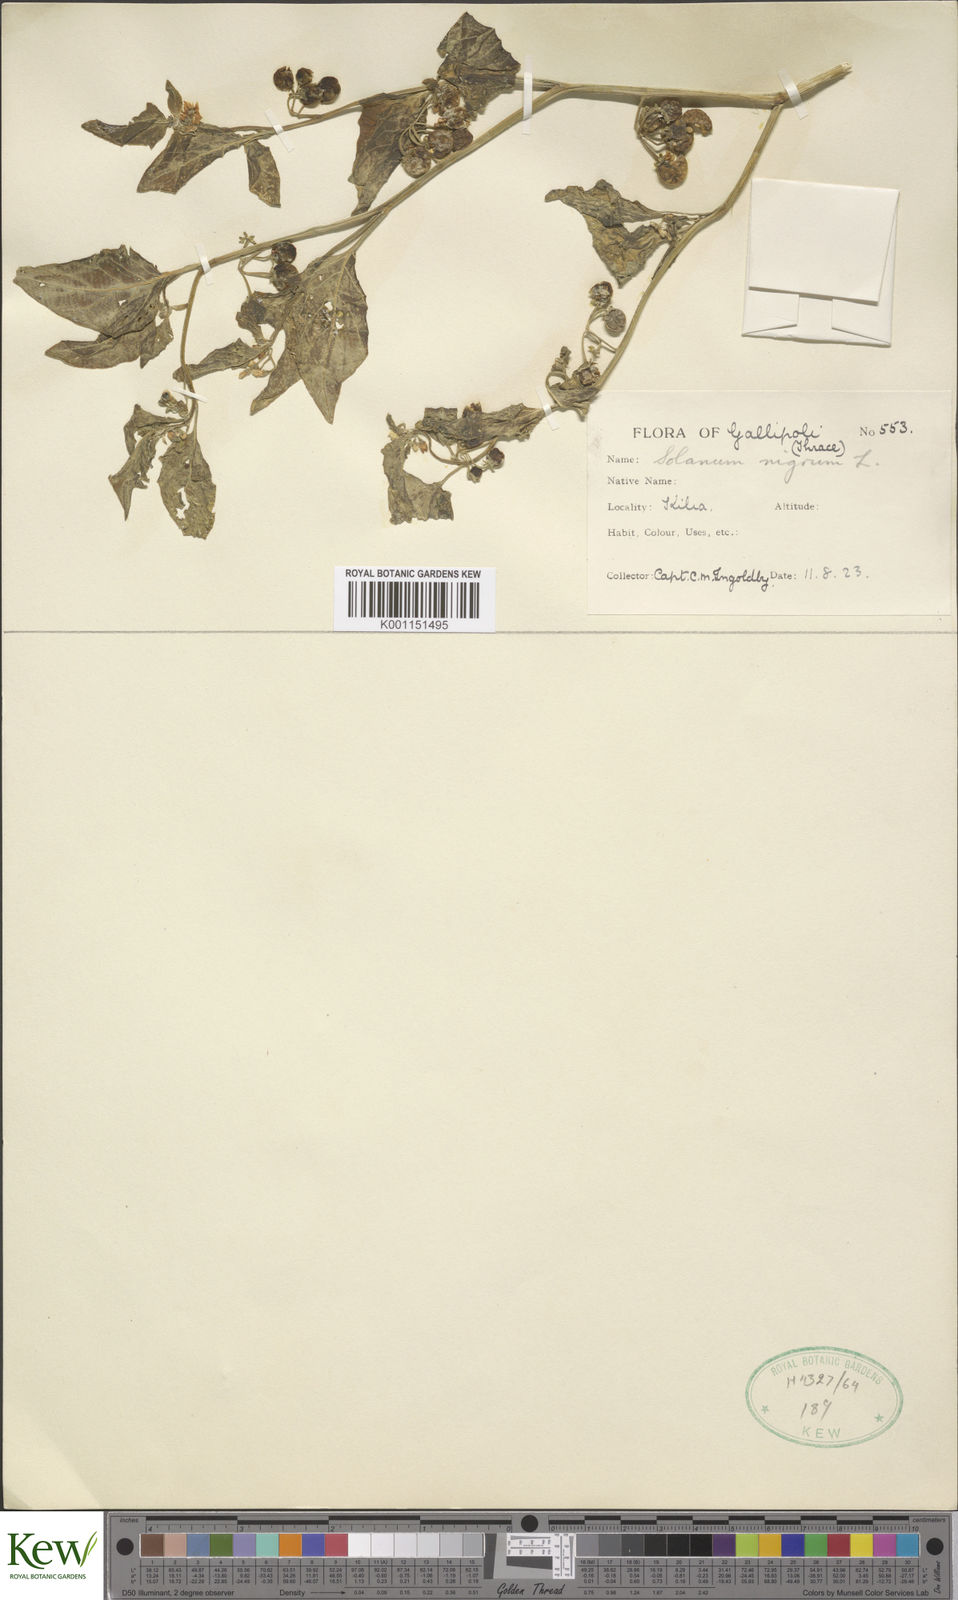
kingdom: Plantae
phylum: Tracheophyta
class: Magnoliopsida
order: Solanales
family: Solanaceae
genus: Solanum
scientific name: Solanum nigrum
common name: Black nightshade
